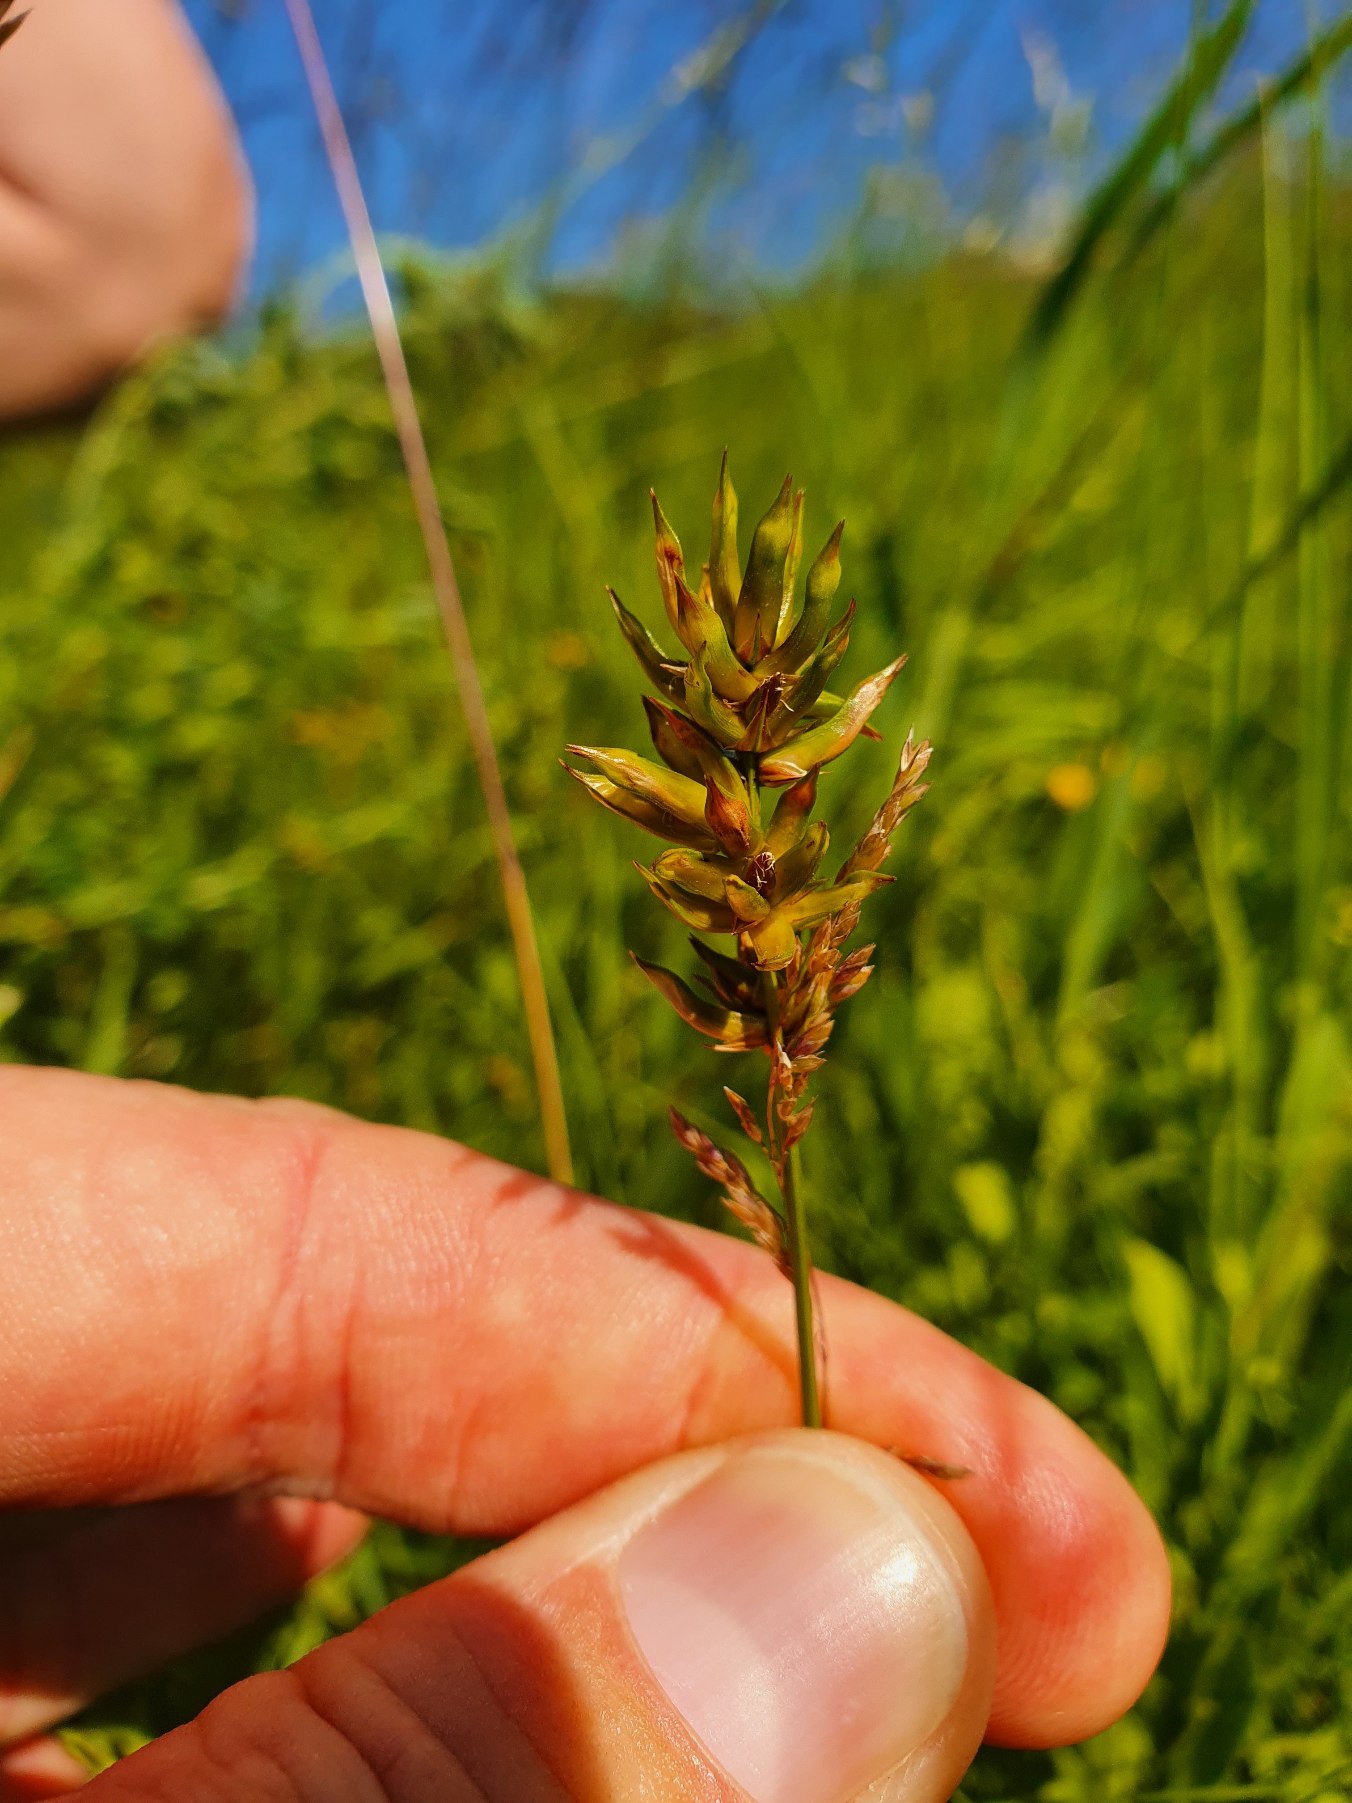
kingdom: Animalia
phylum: Arthropoda
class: Insecta
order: Diptera
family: Cecidomyiidae
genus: Wachtliella
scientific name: Wachtliella caricis
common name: Frugthylstergalmyg
